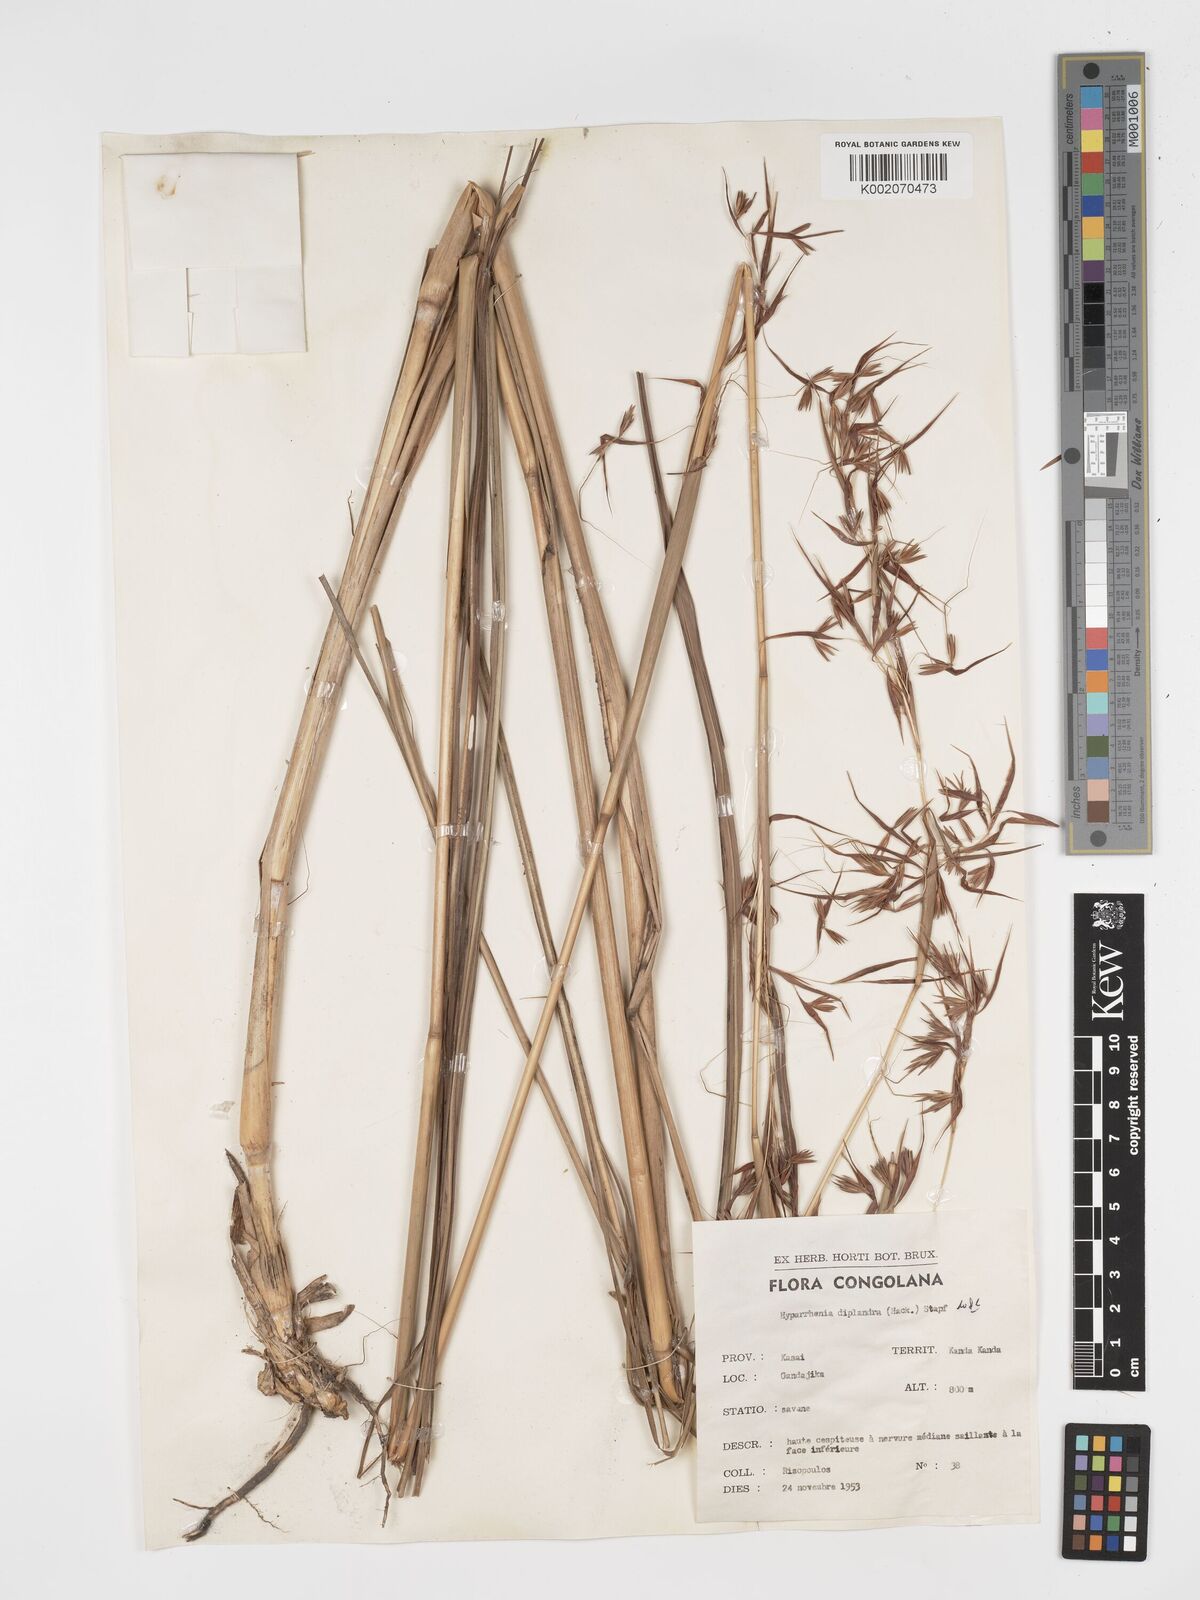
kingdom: Plantae
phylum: Tracheophyta
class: Liliopsida
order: Poales
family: Poaceae
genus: Hyparrhenia
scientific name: Hyparrhenia diplandra
